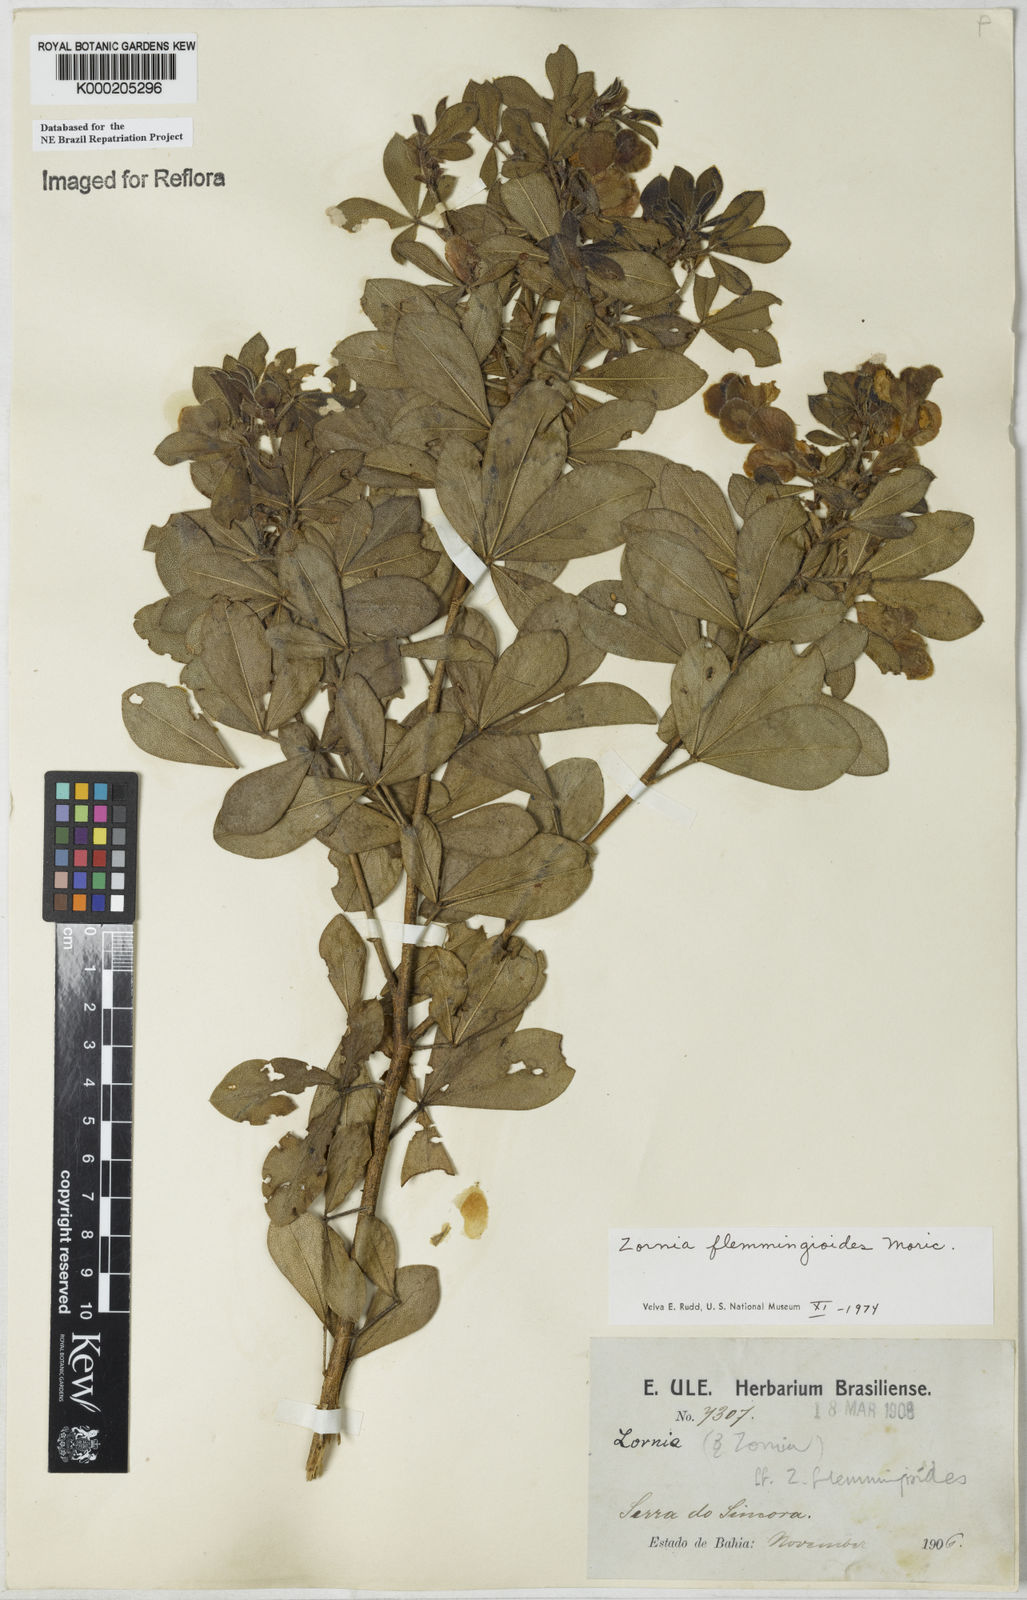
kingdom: Plantae
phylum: Tracheophyta
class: Magnoliopsida
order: Fabales
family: Fabaceae
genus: Zornia
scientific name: Zornia flemmingioides
